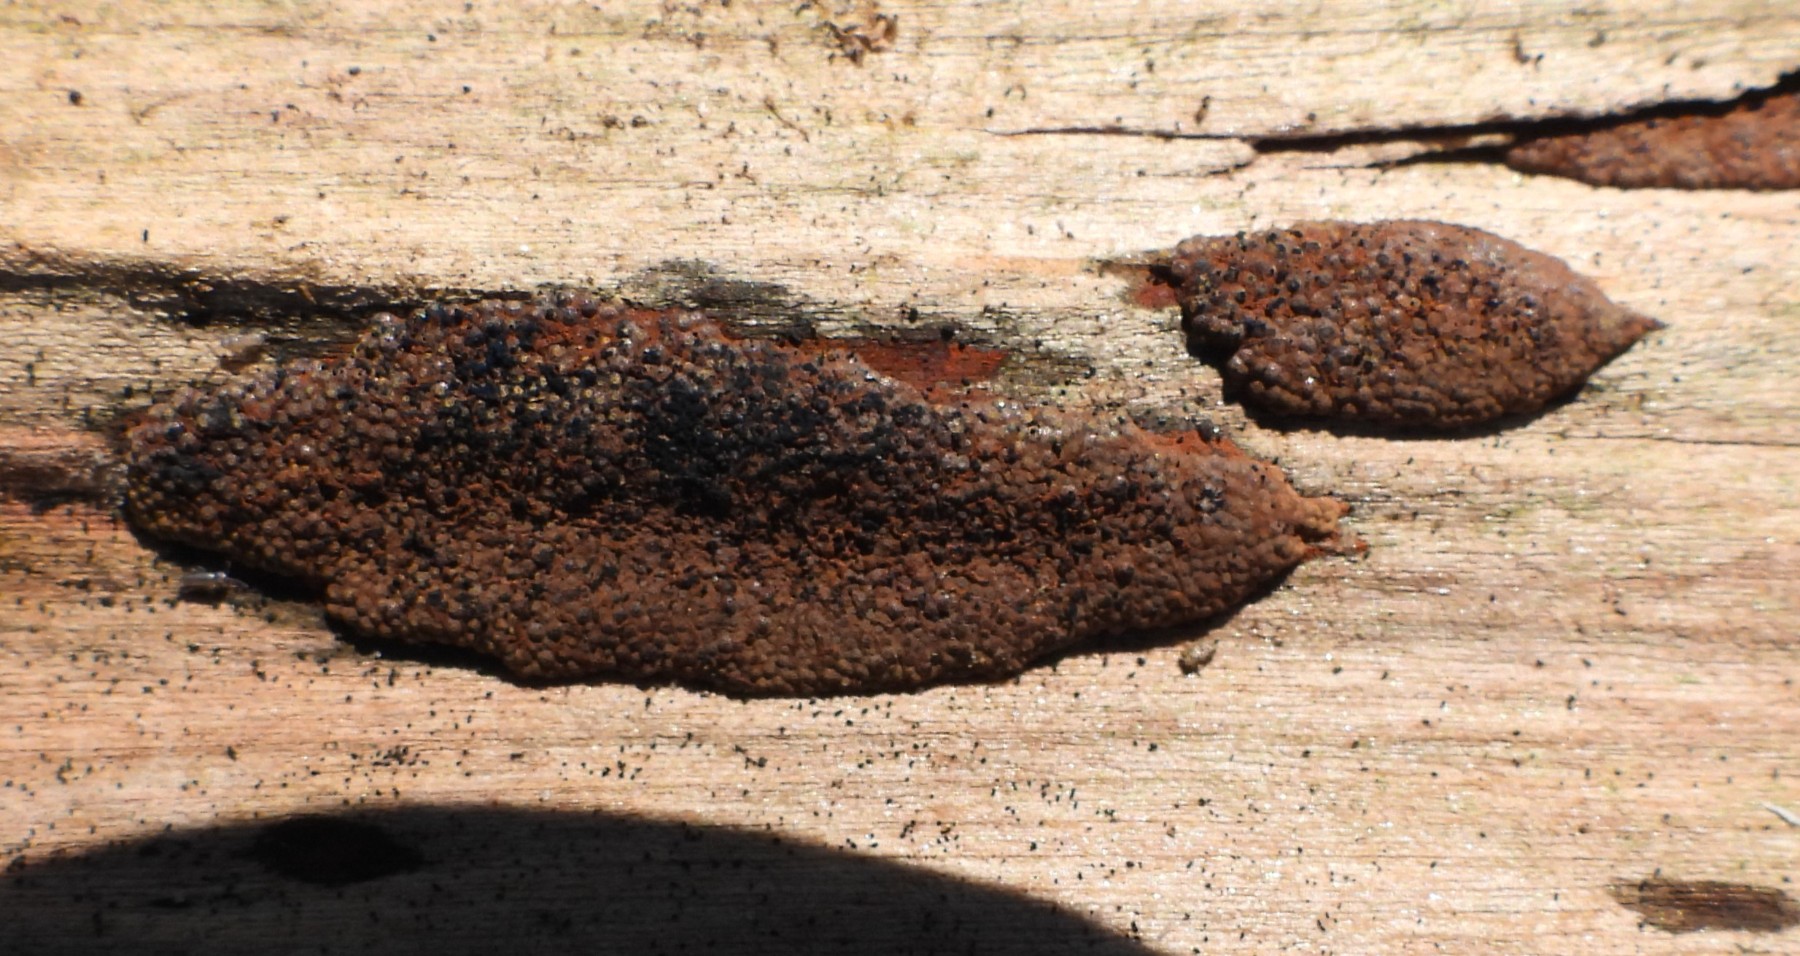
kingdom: Fungi
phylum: Ascomycota
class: Sordariomycetes
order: Xylariales
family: Hypoxylaceae
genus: Hypoxylon
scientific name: Hypoxylon rubiginosum
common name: rustfarvet kulbær
